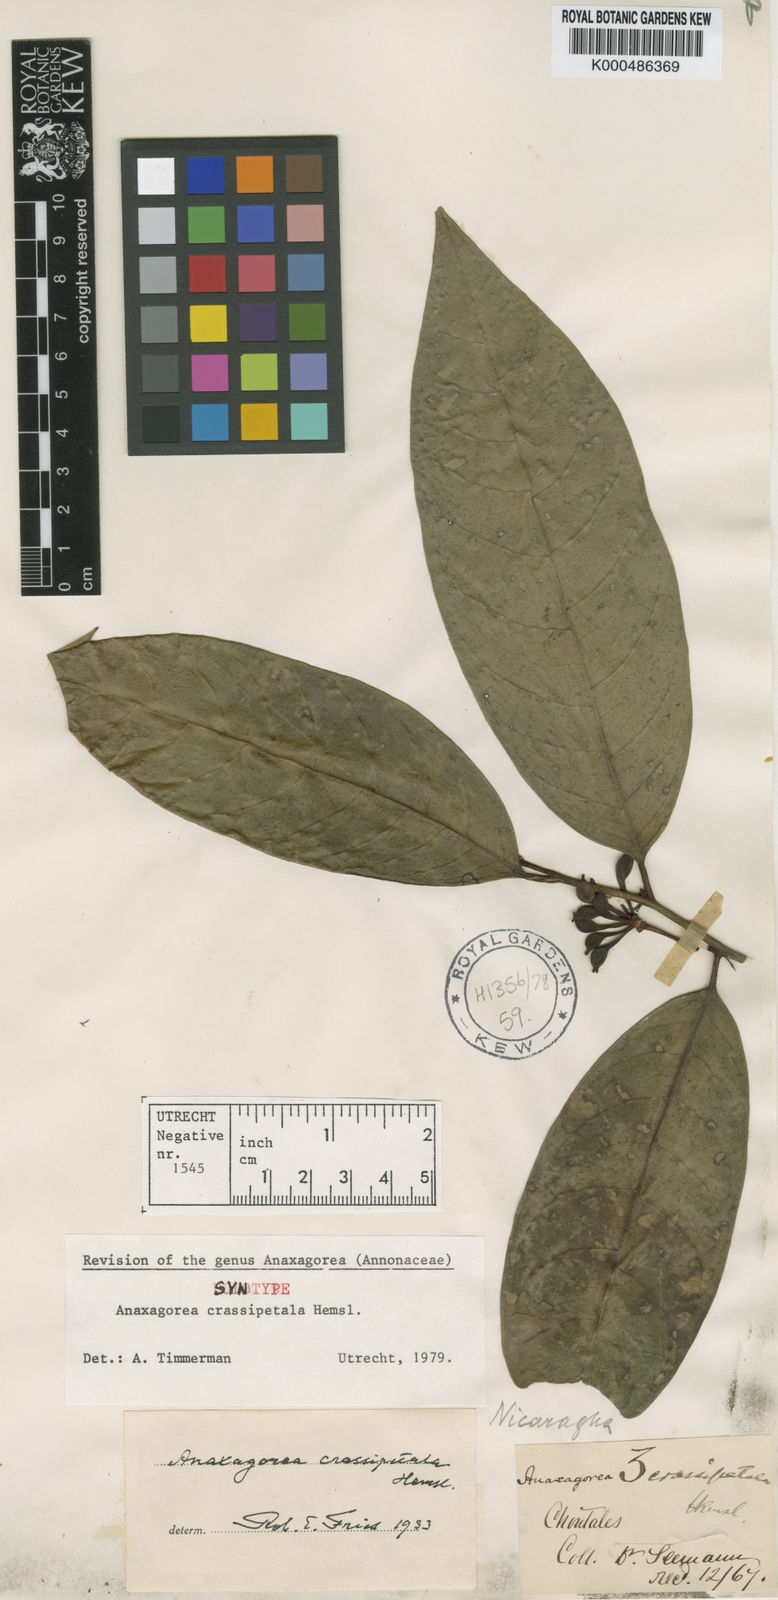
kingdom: Plantae
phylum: Tracheophyta
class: Magnoliopsida
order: Magnoliales
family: Annonaceae
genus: Anaxagorea
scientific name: Anaxagorea crassipetala
